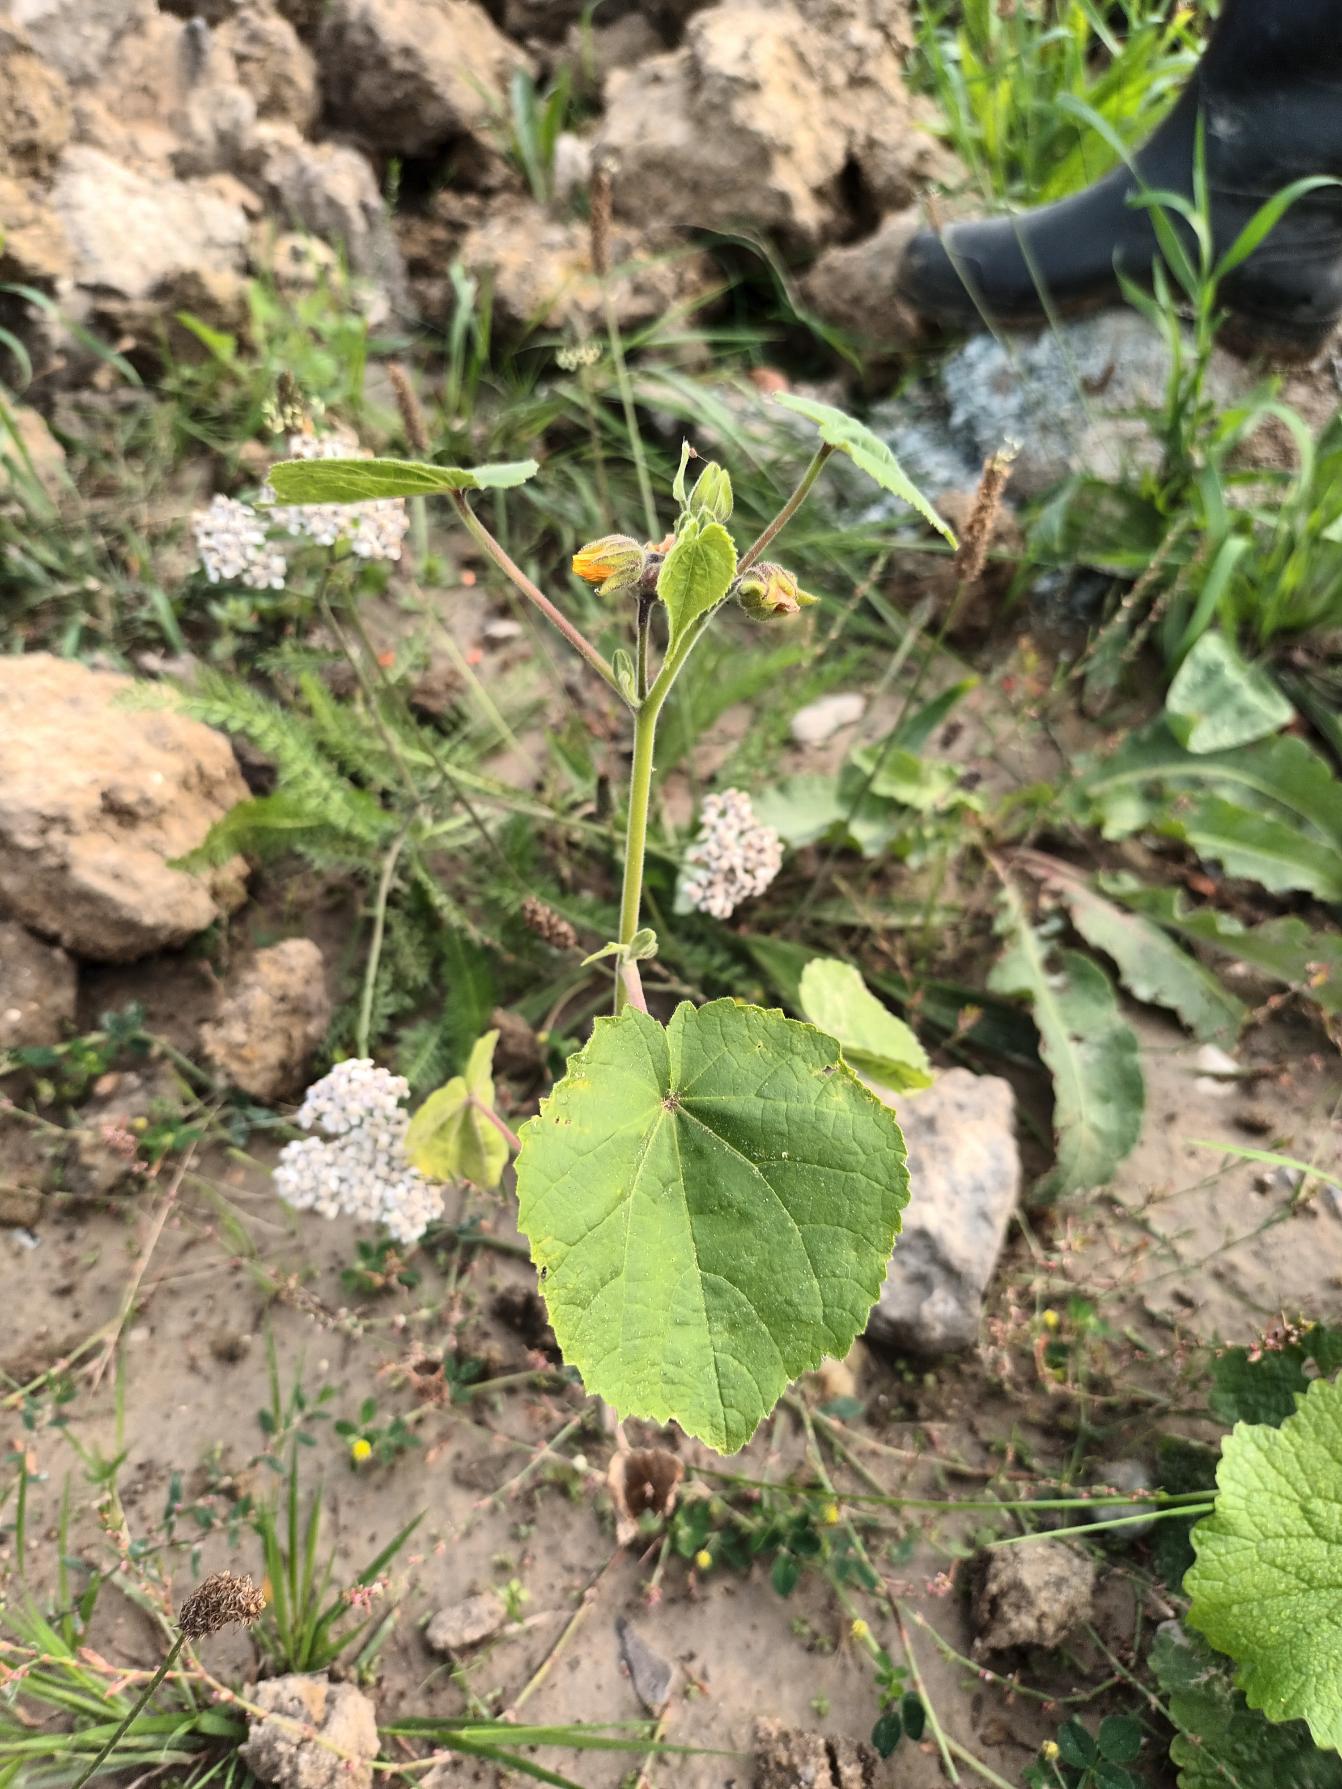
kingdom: Plantae
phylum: Tracheophyta
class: Magnoliopsida
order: Malvales
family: Malvaceae
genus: Abutilon
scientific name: Abutilon theophrasti
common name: Kinajute
